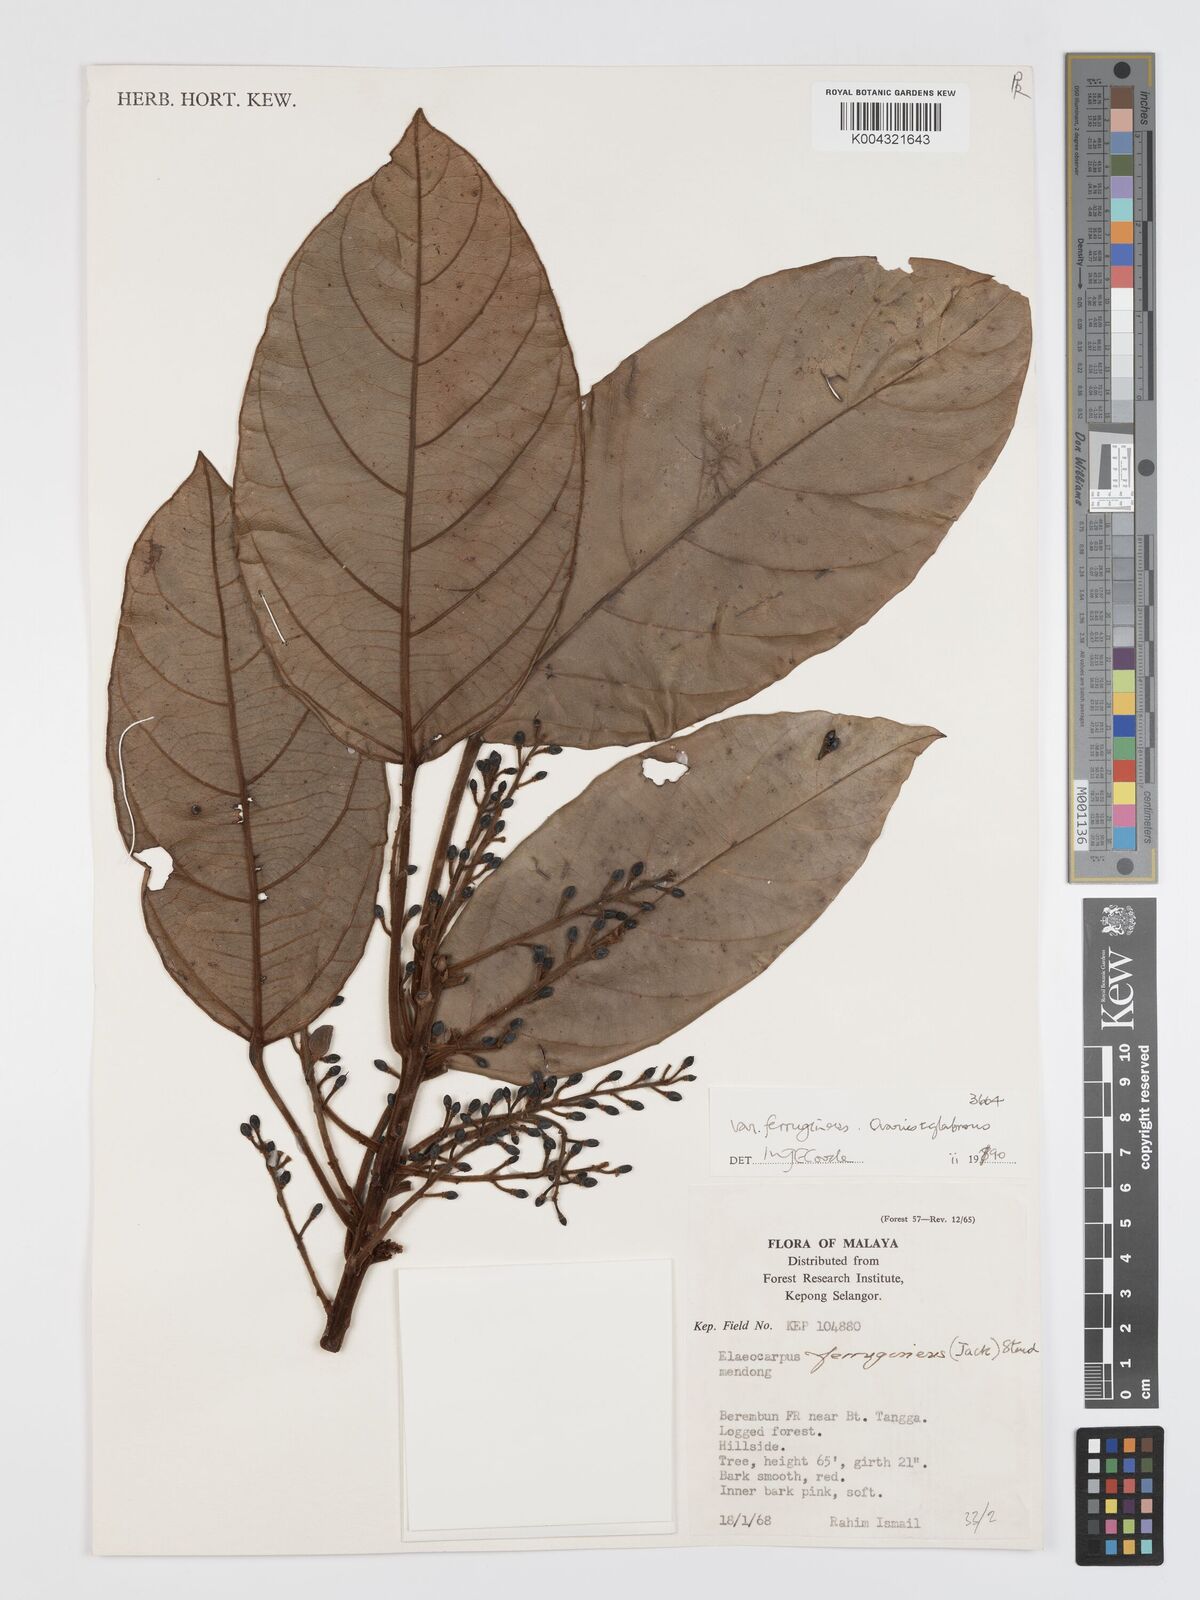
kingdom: Plantae
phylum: Tracheophyta
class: Magnoliopsida
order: Oxalidales
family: Elaeocarpaceae
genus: Elaeocarpus
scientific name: Elaeocarpus ferrugineus
